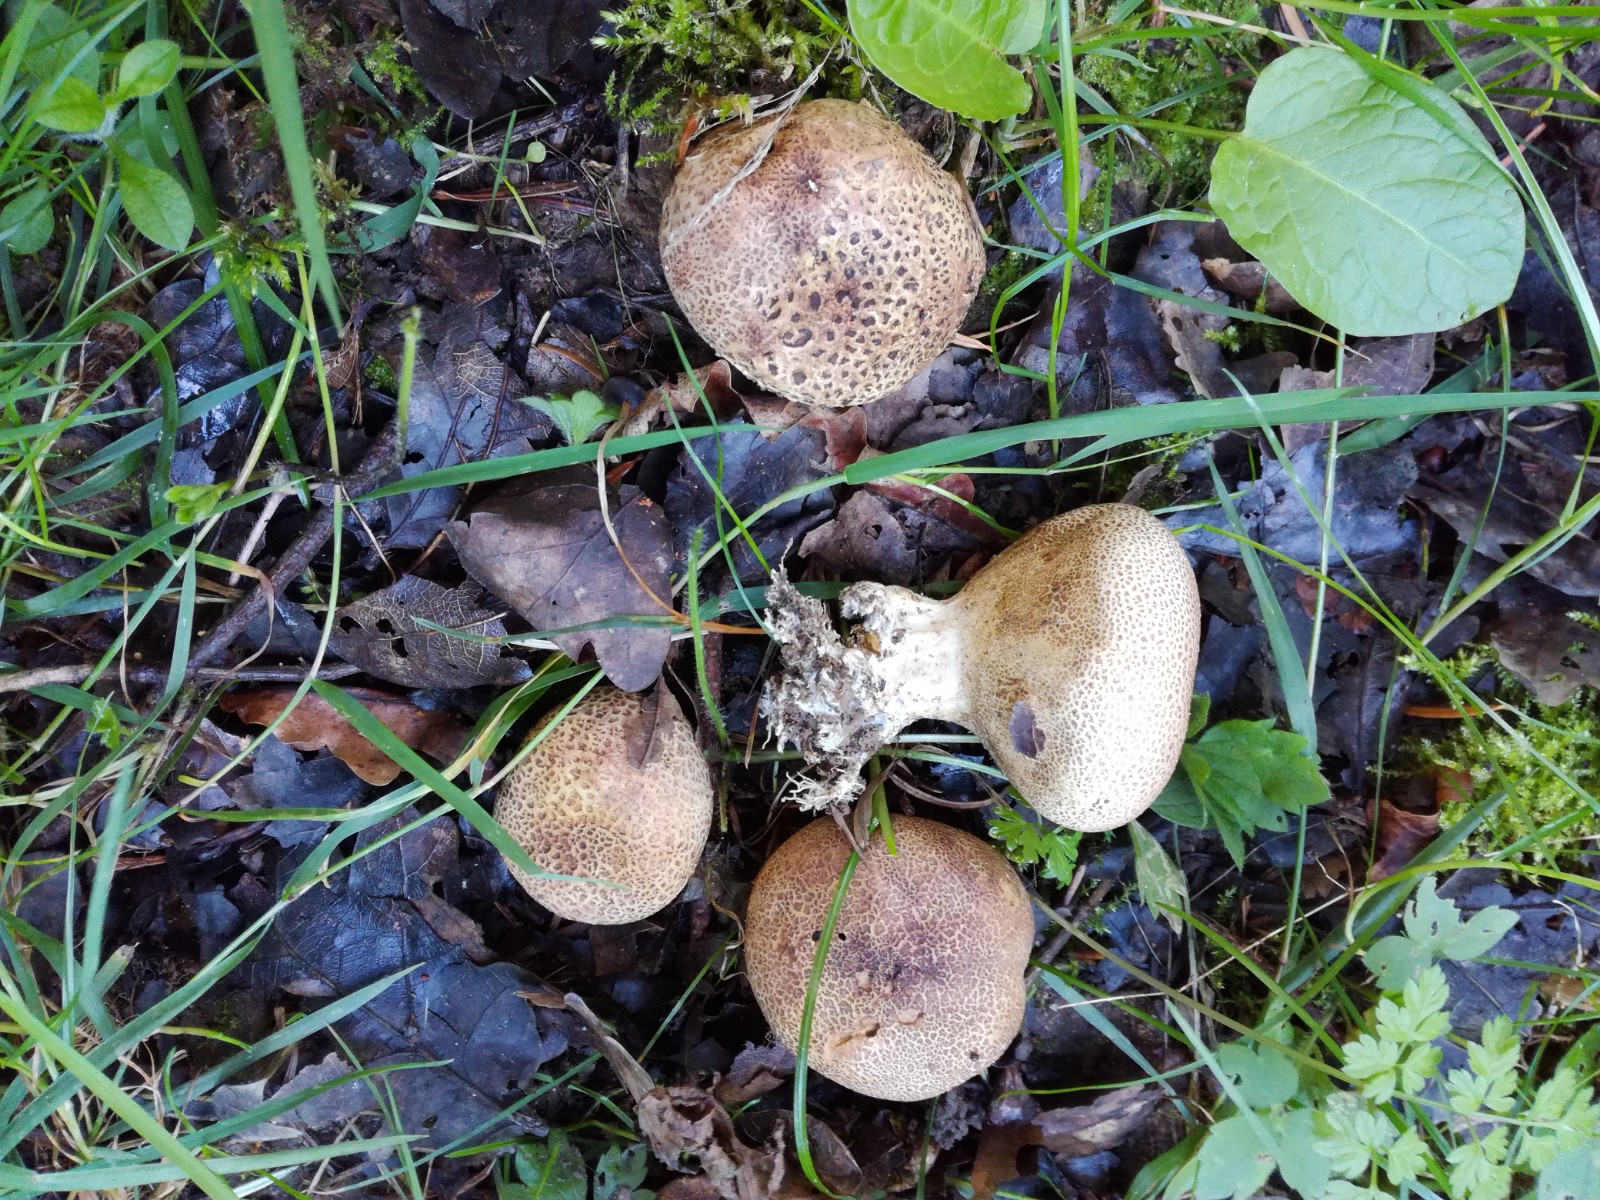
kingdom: Fungi
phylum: Basidiomycota
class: Agaricomycetes
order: Boletales
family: Sclerodermataceae
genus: Scleroderma
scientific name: Scleroderma verrucosum
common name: stilket bruskbold
